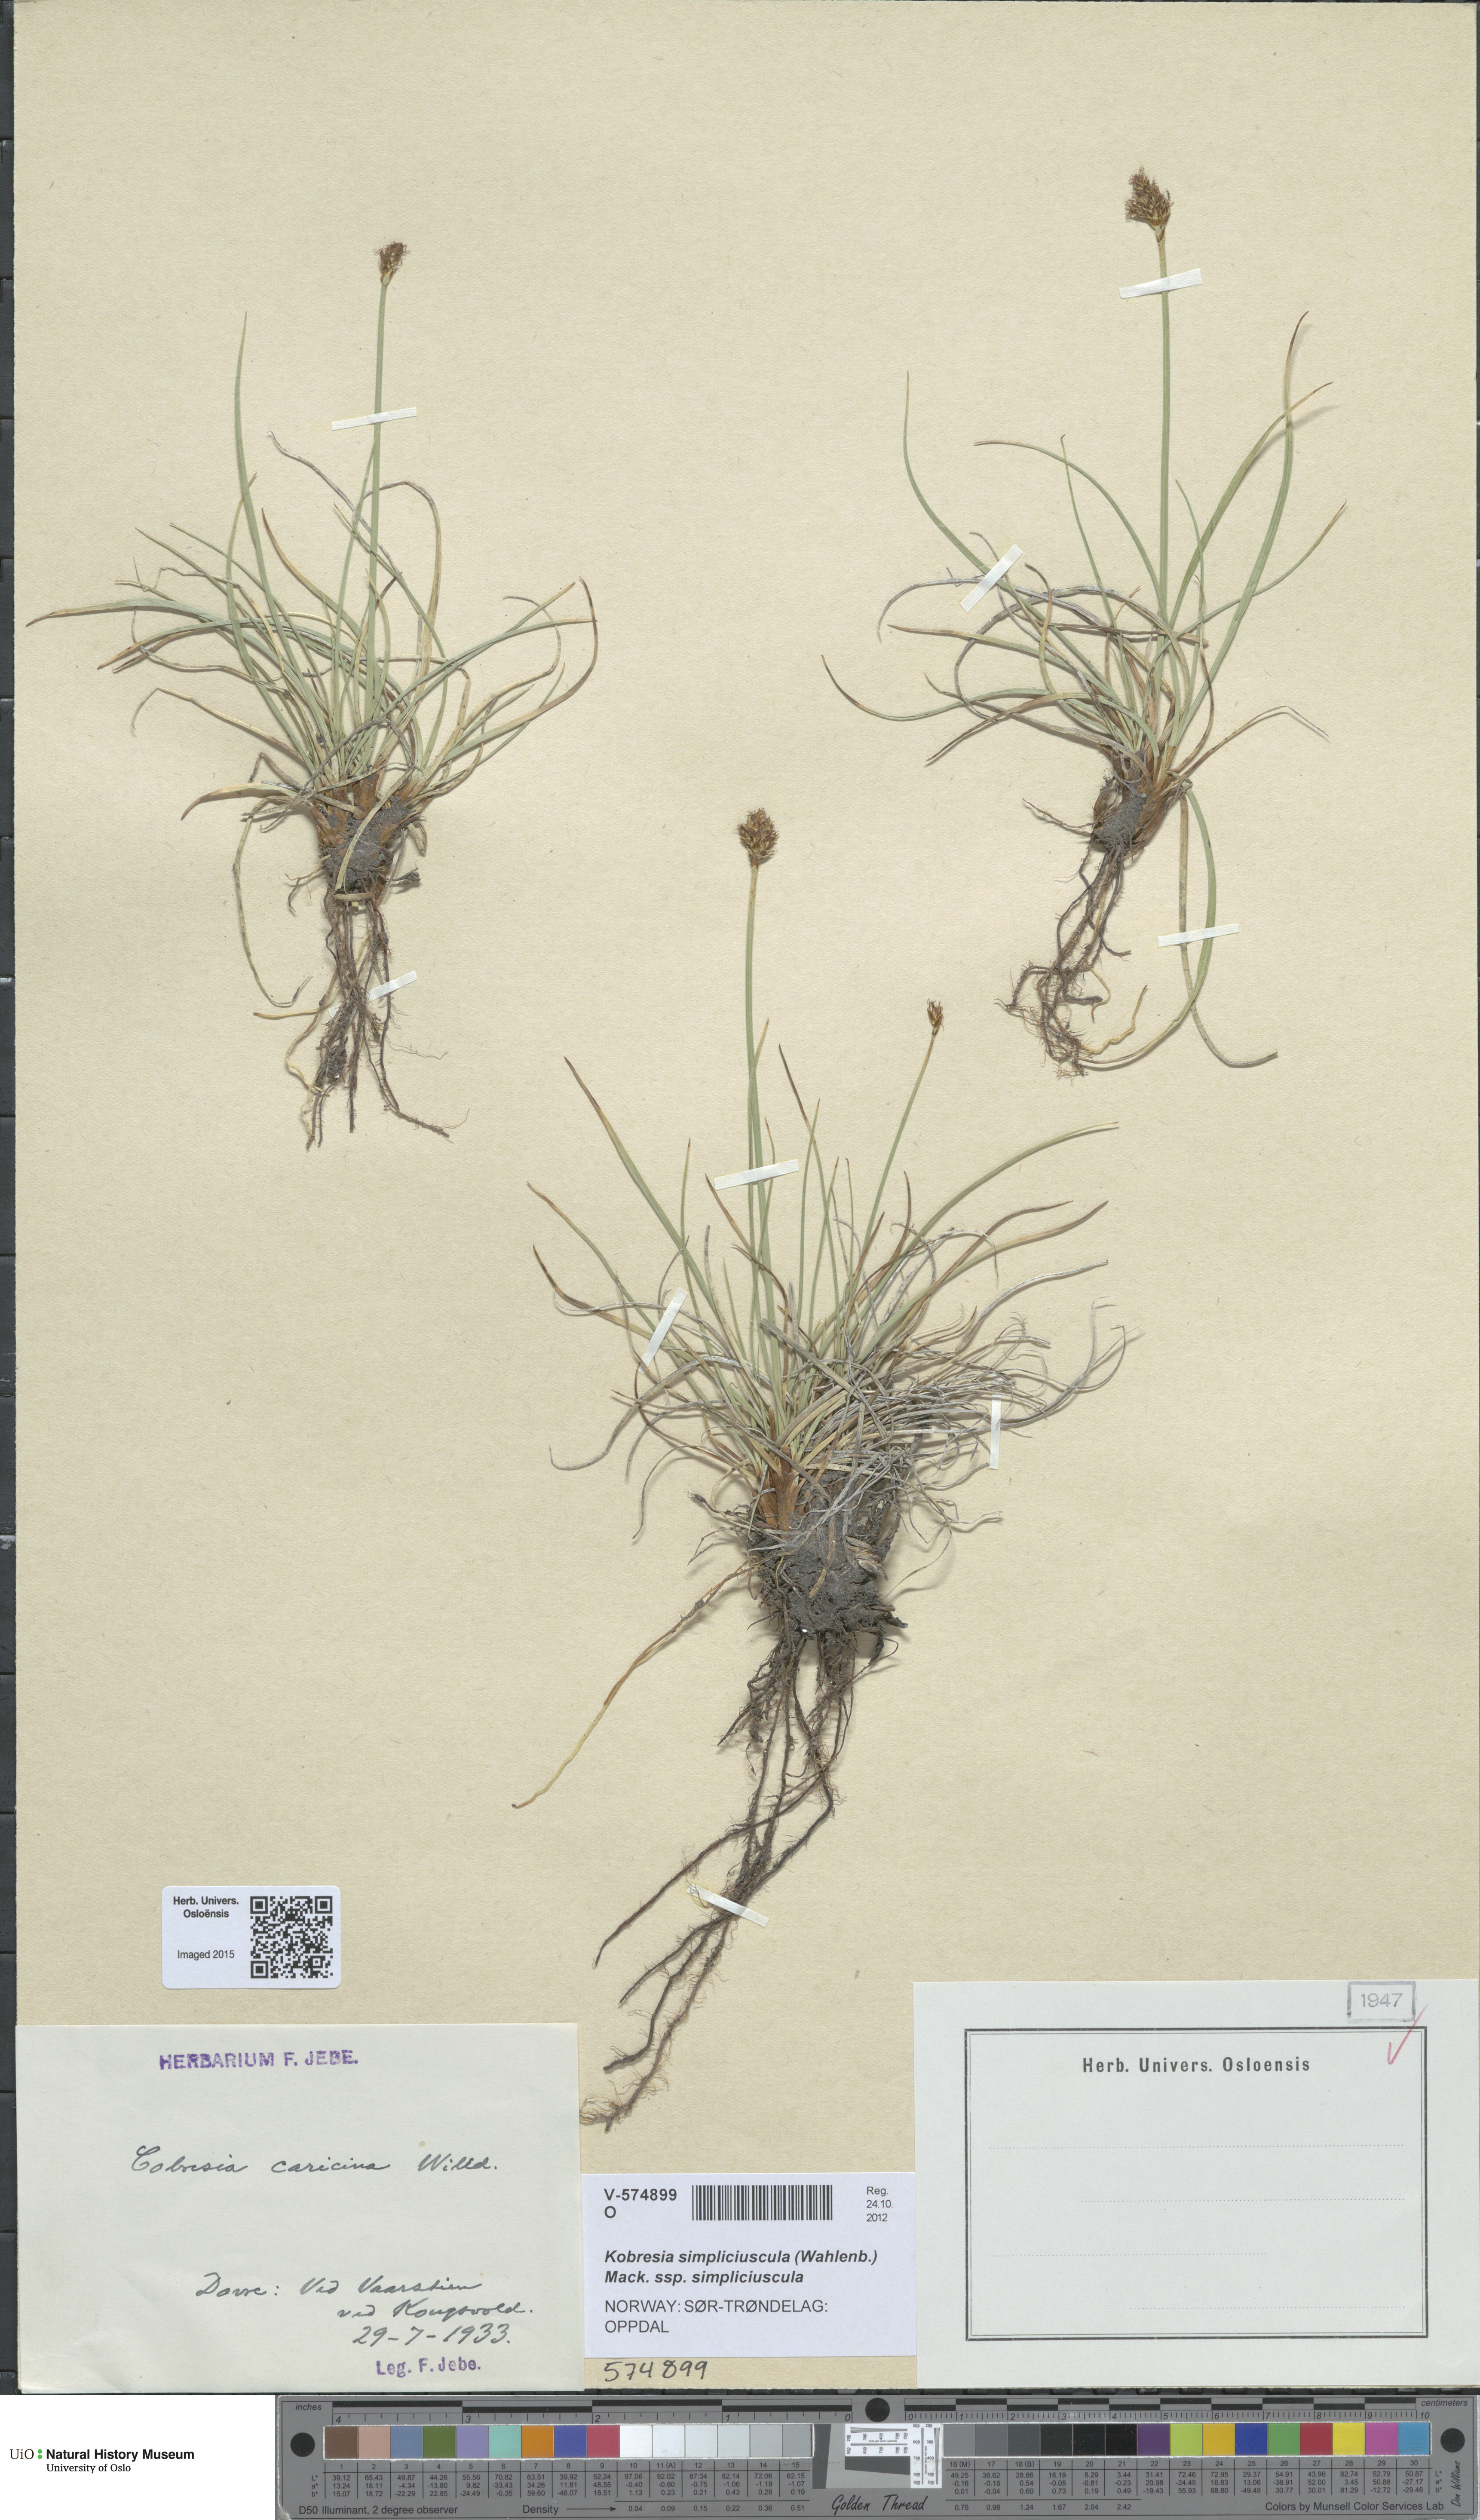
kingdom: Plantae
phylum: Tracheophyta
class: Liliopsida
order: Poales
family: Cyperaceae
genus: Carex
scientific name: Carex simpliciuscula
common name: Simple bog sedge
